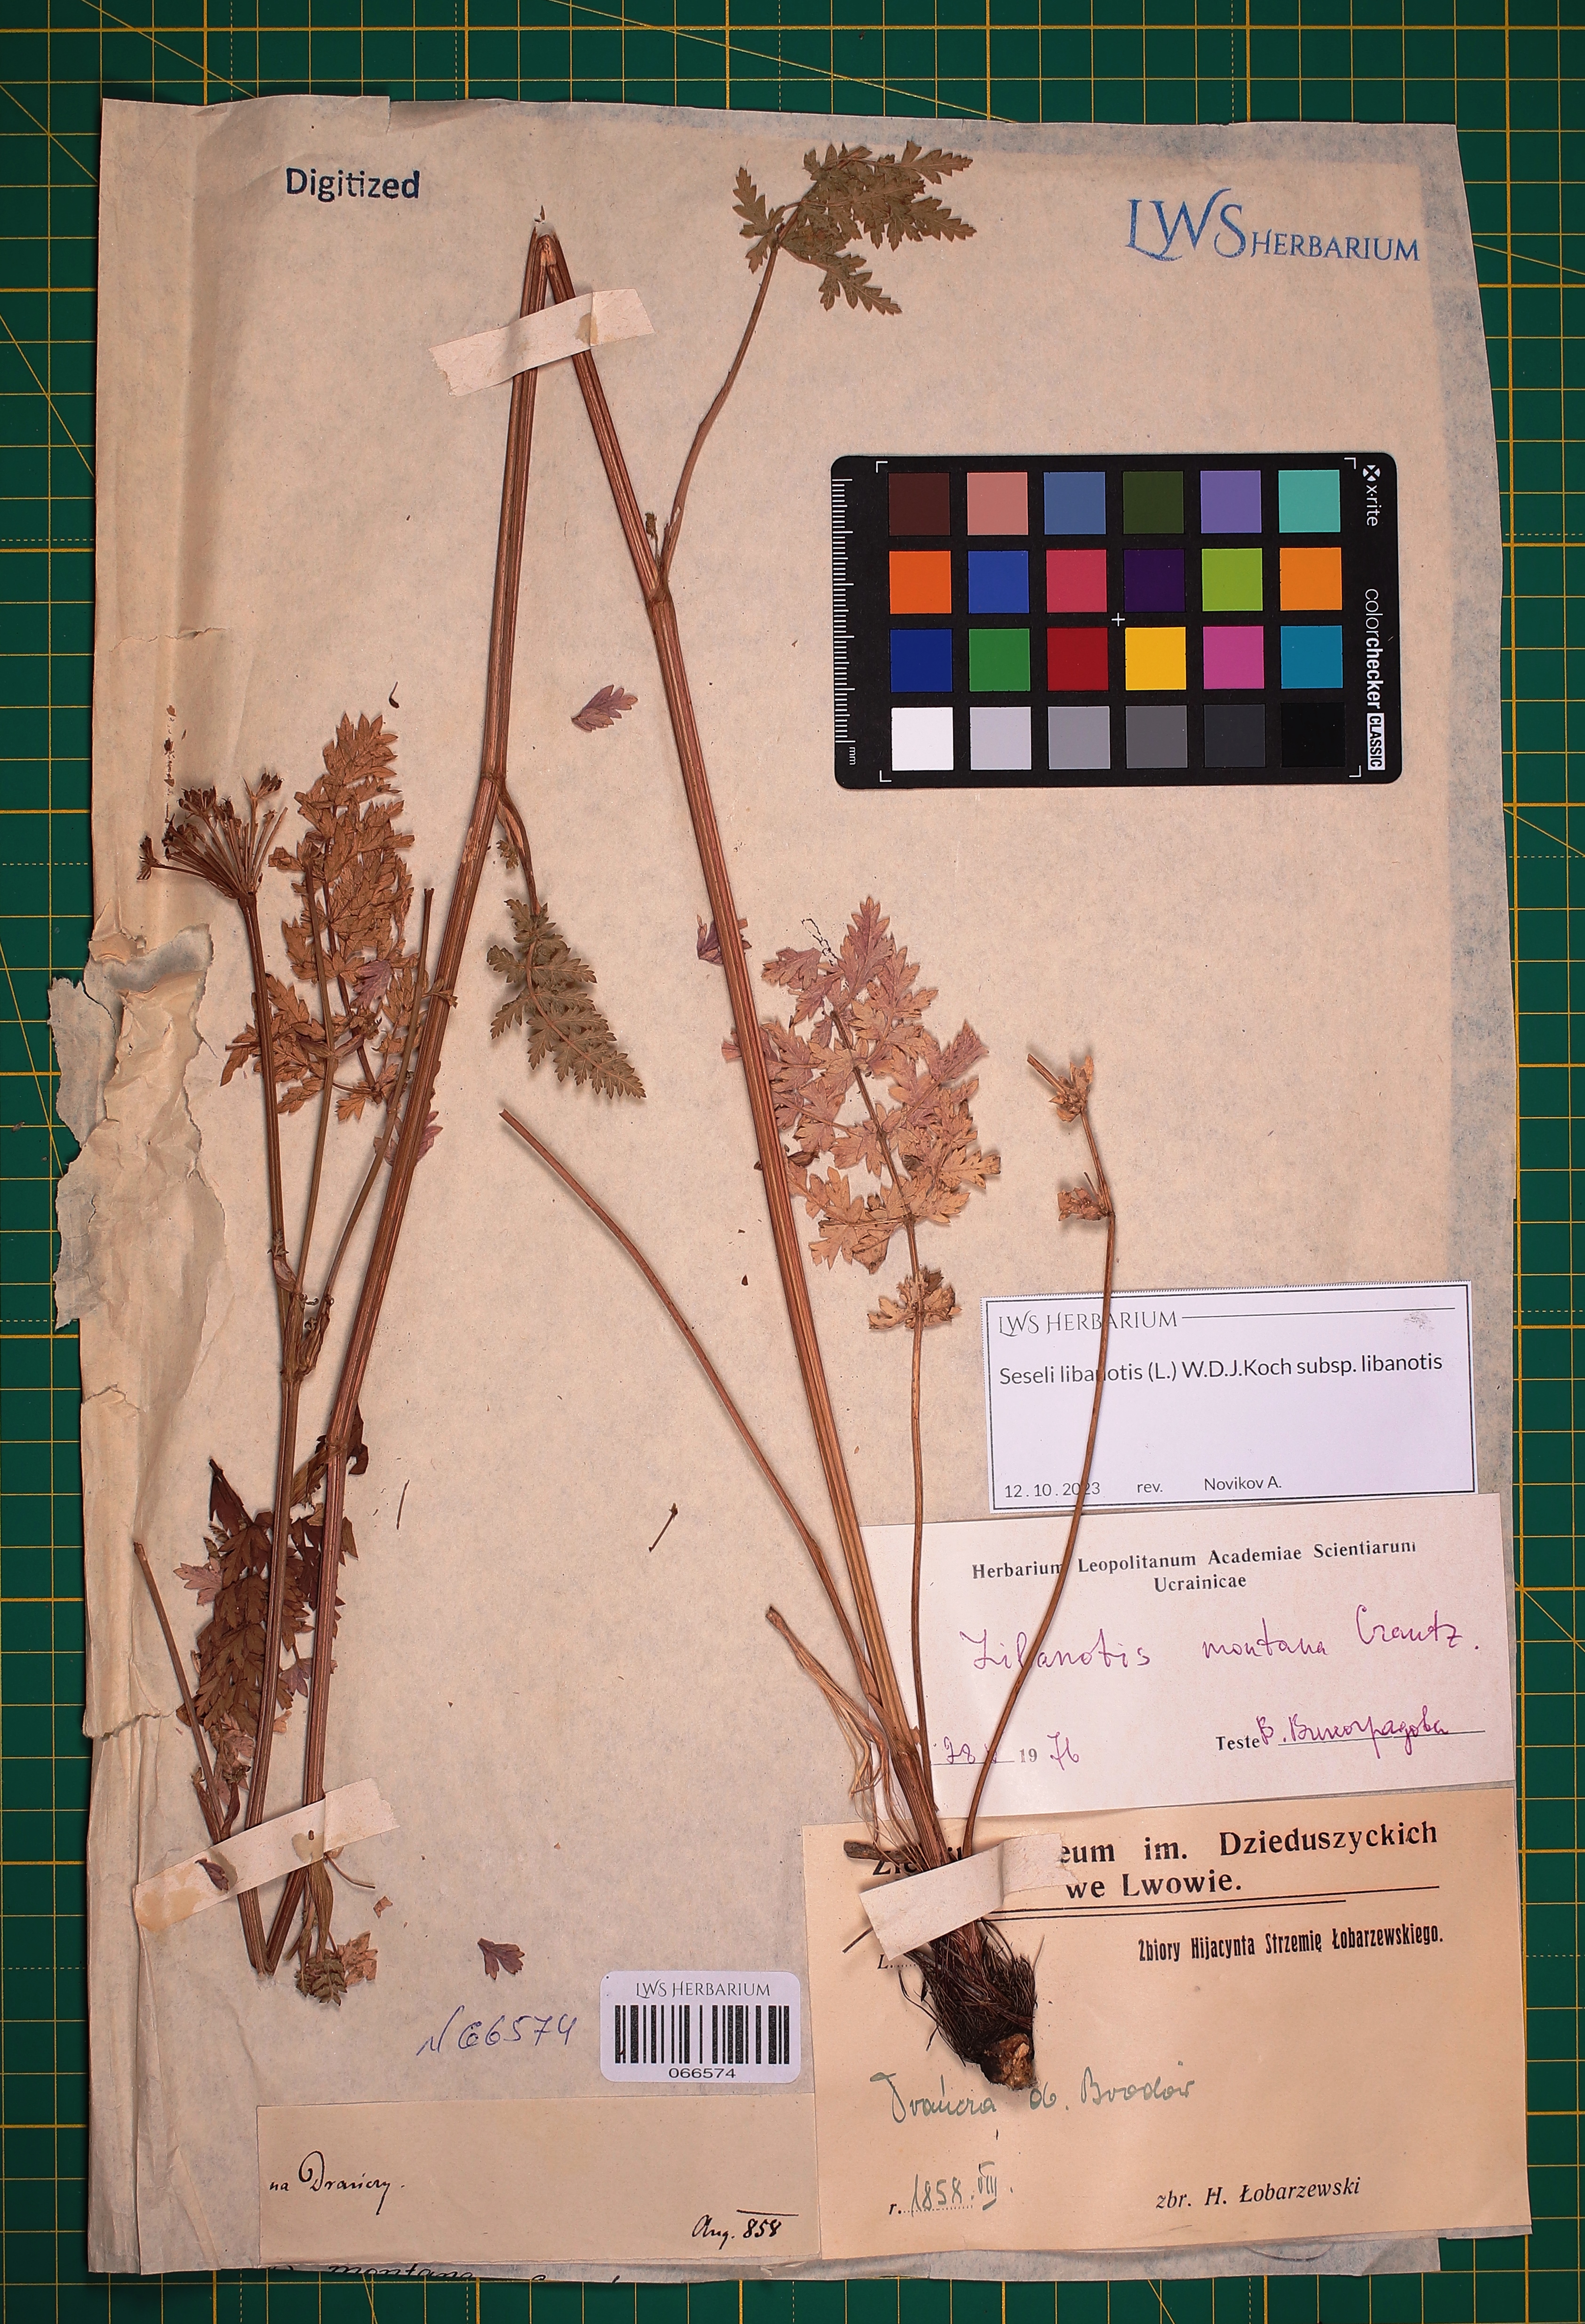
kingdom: Plantae
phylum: Tracheophyta
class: Magnoliopsida
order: Apiales
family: Apiaceae
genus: Seseli
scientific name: Seseli libanotis
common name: Mooncarrot
